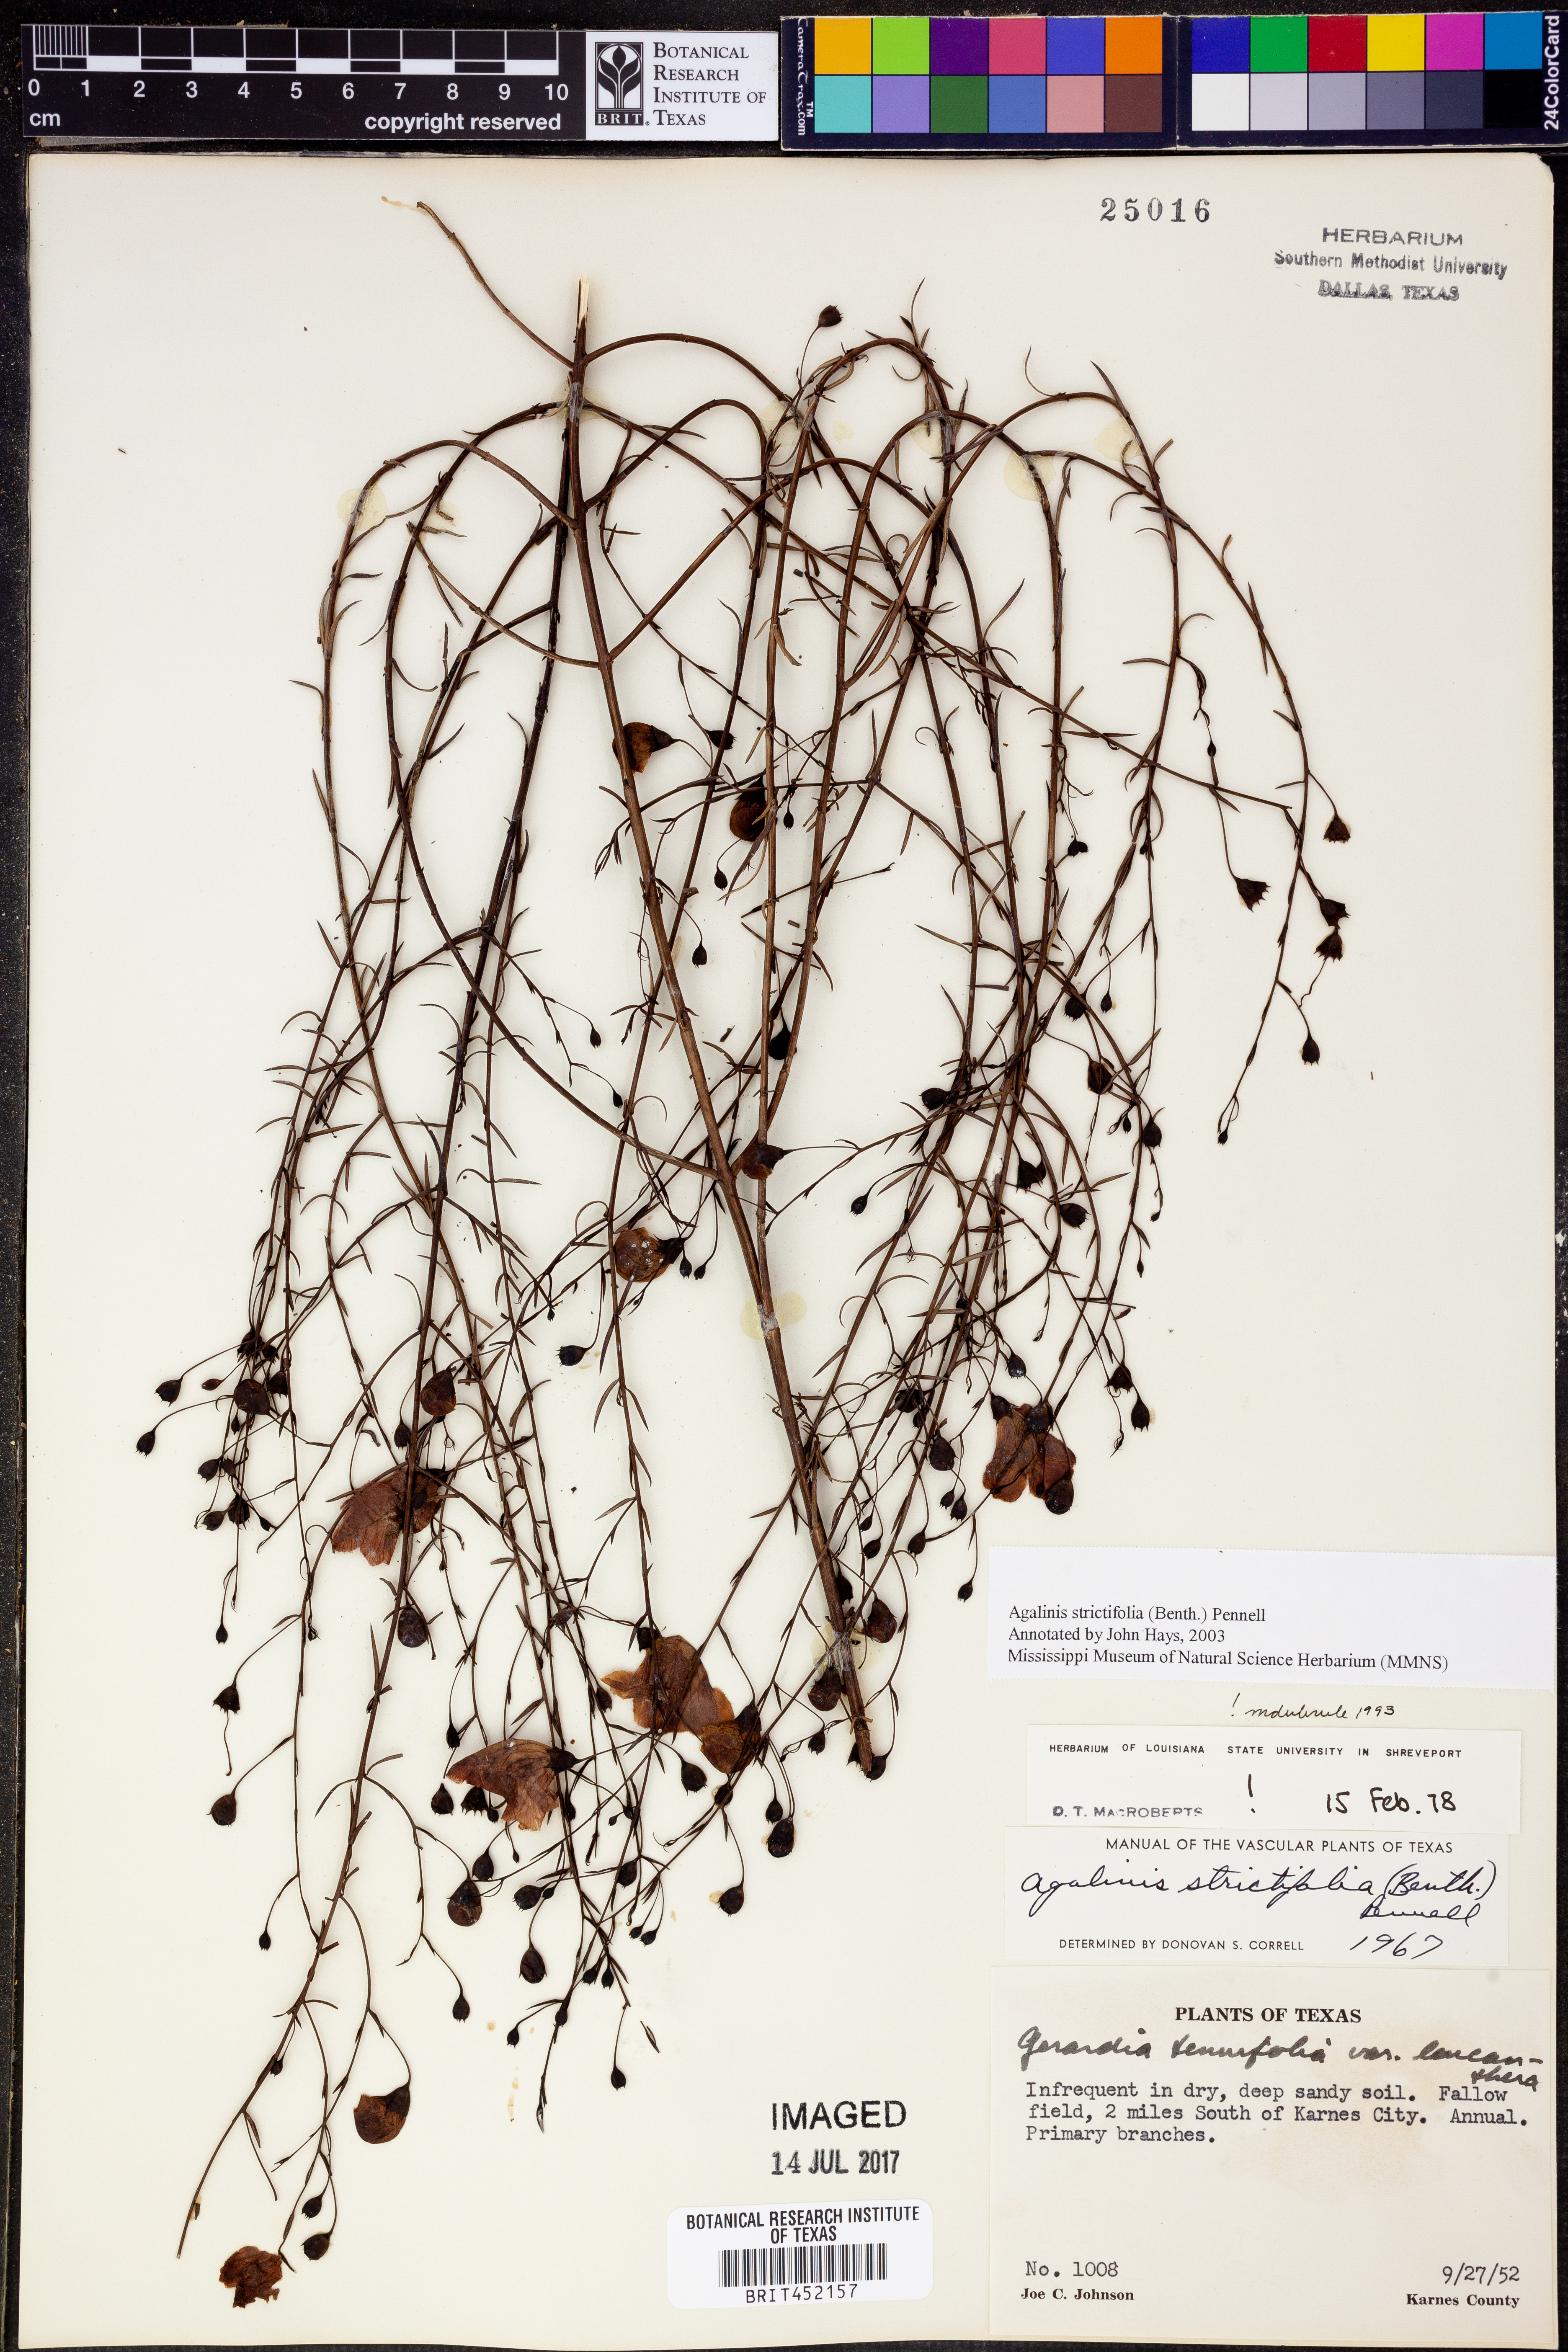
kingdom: Plantae
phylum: Tracheophyta
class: Magnoliopsida
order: Lamiales
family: Orobanchaceae
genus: Agalinis
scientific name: Agalinis strictifolia
